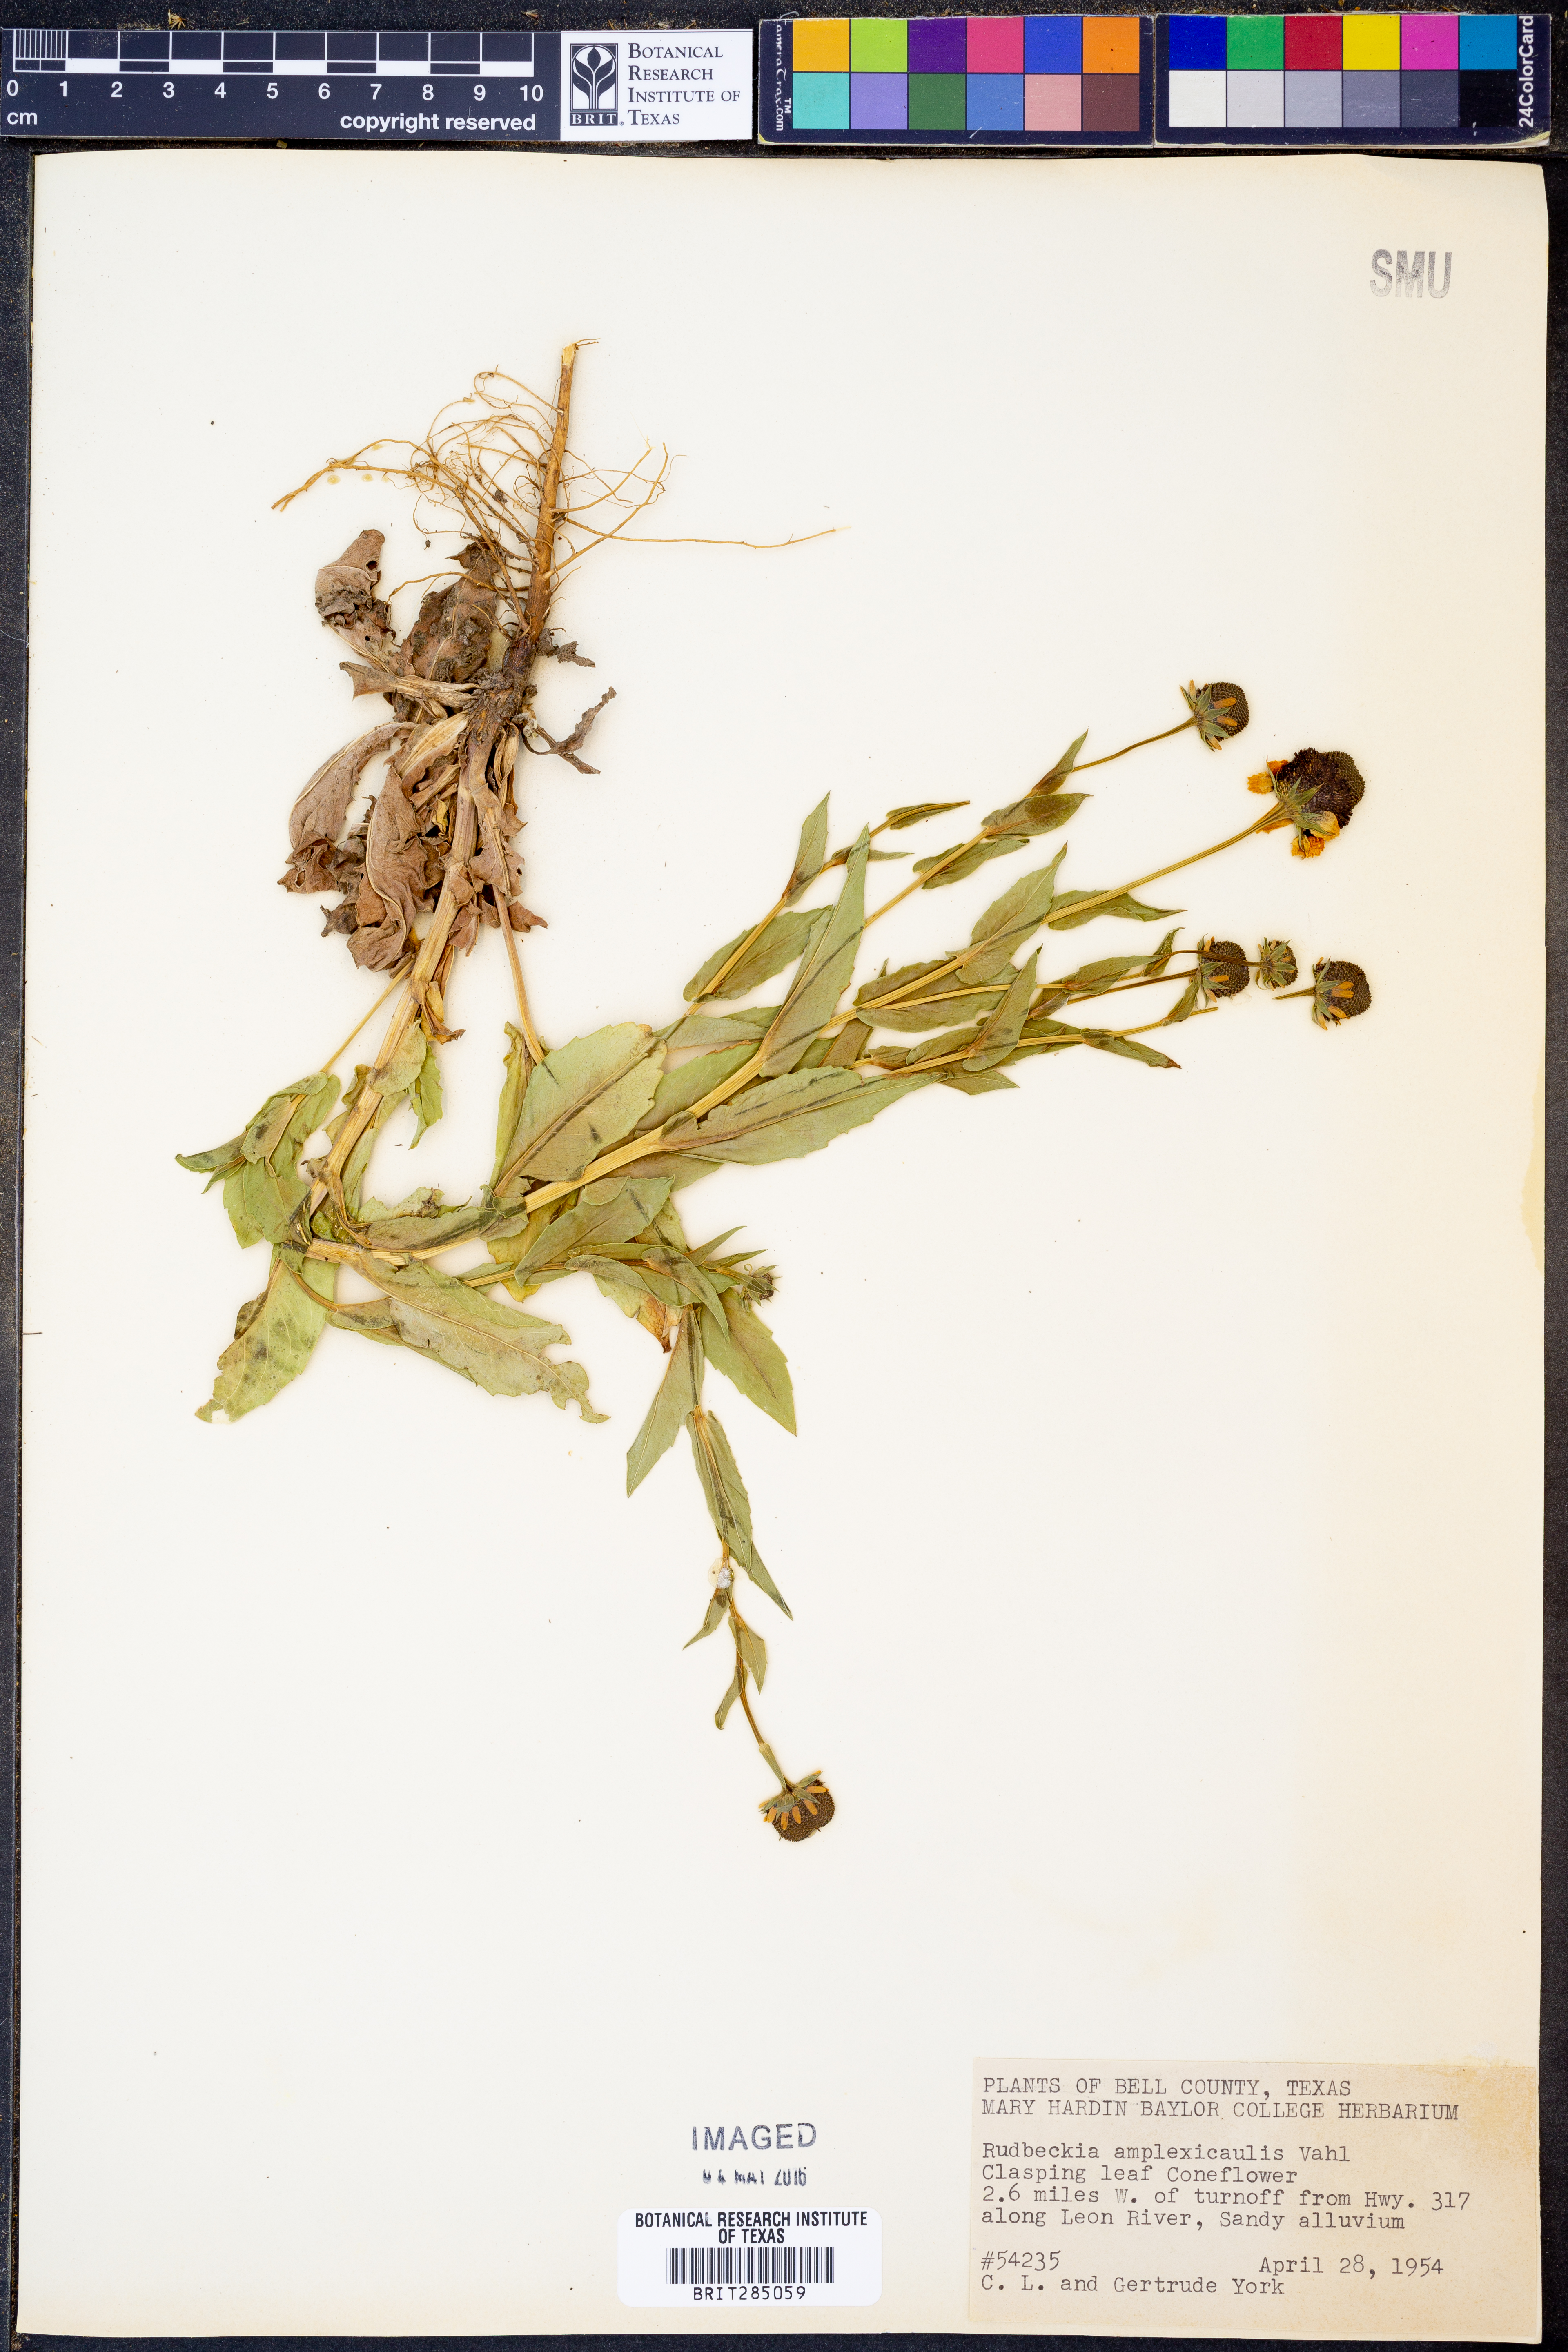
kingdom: Plantae
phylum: Tracheophyta
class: Magnoliopsida
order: Asterales
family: Asteraceae
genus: Rudbeckia
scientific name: Rudbeckia amplexicaulis
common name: Clasping-leaf coneflower
